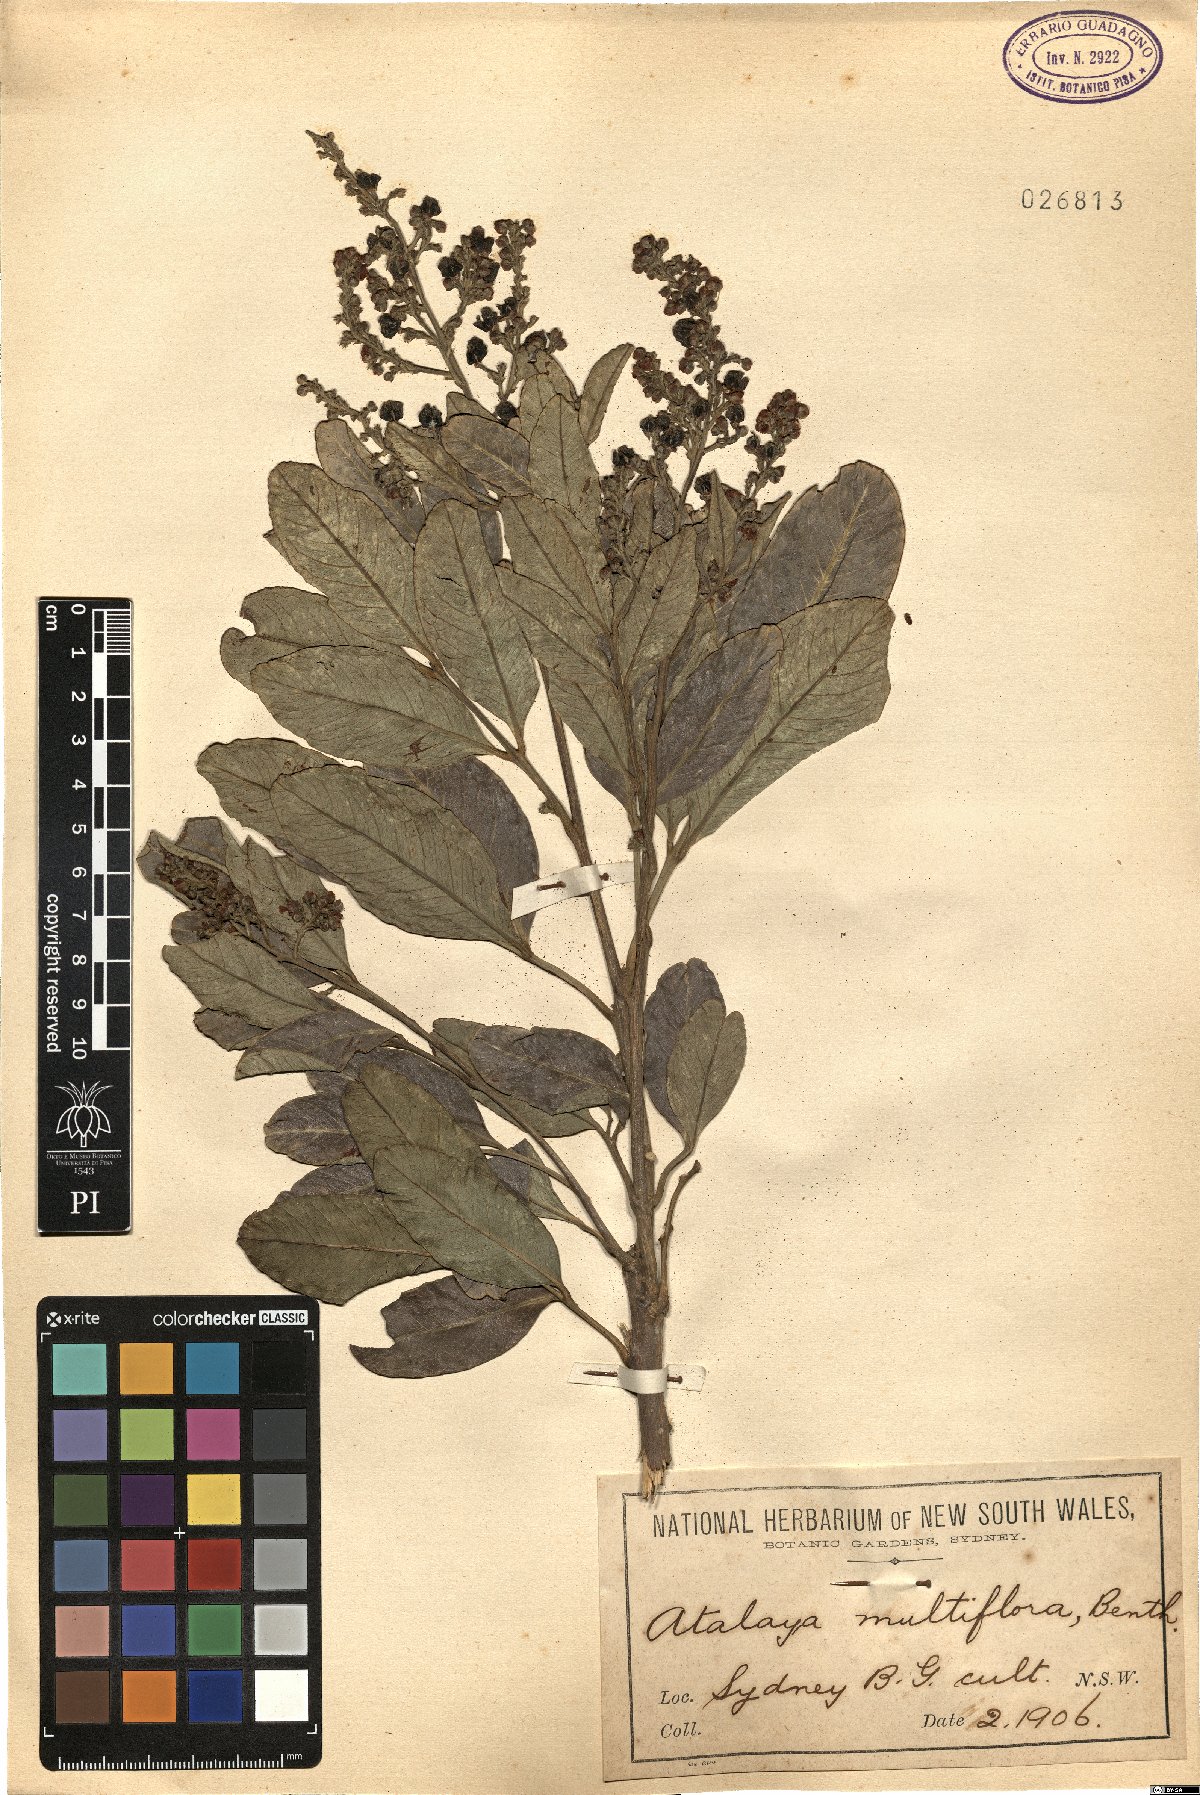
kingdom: Plantae
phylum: Tracheophyta
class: Magnoliopsida
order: Sapindales
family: Sapindaceae
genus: Atalaya
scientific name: Atalaya multiflora
